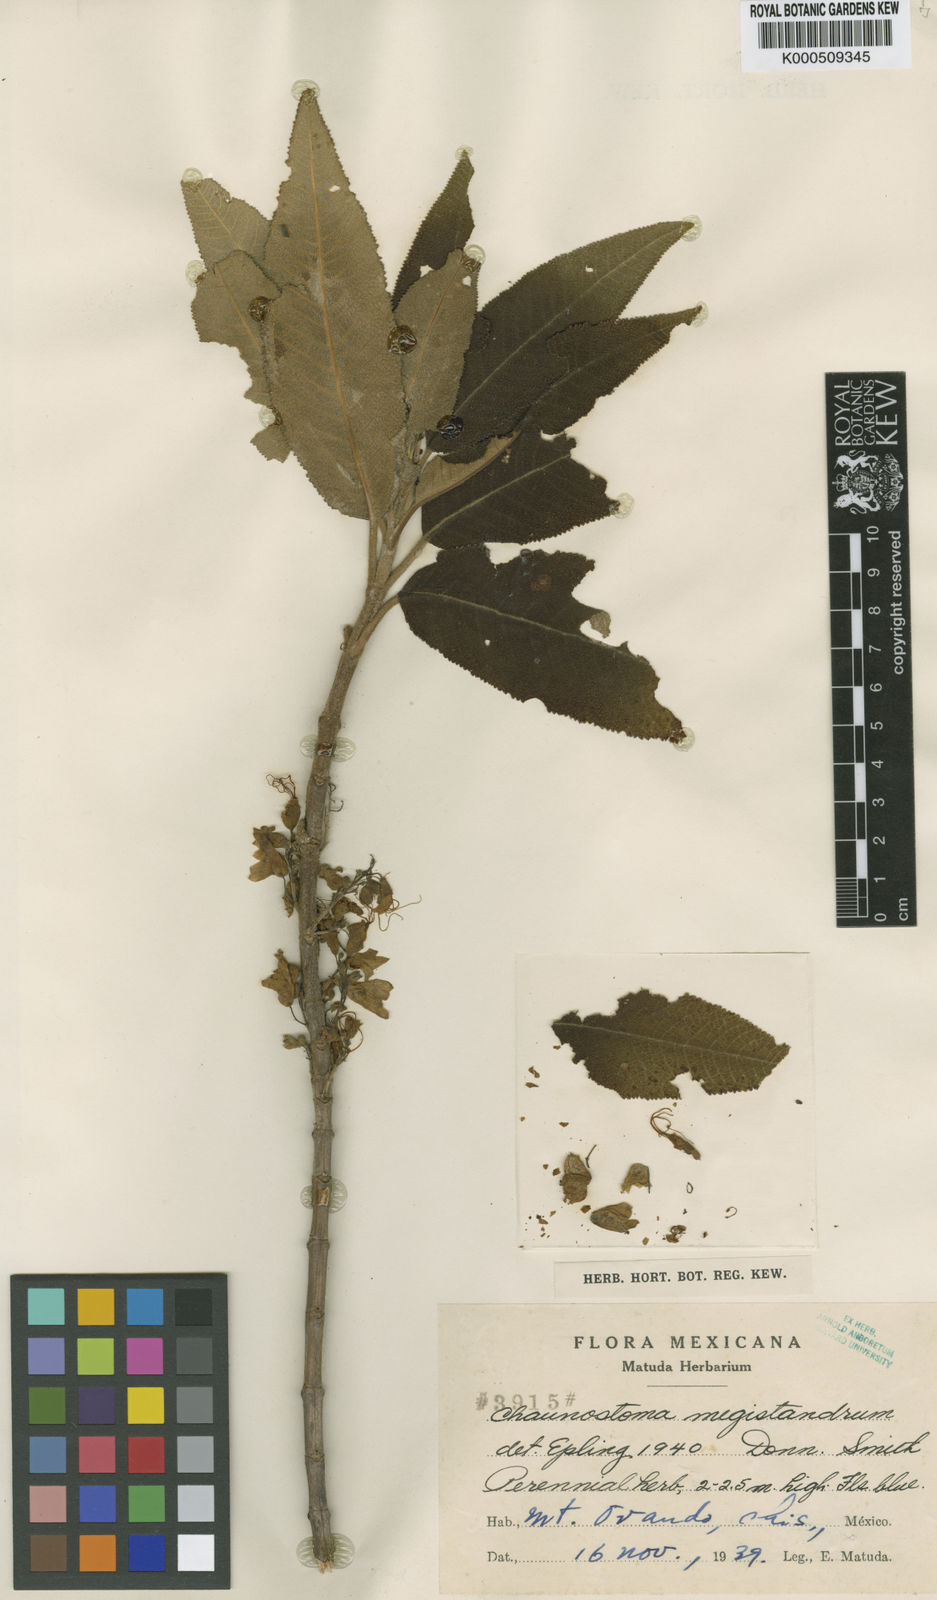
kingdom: Plantae
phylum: Tracheophyta
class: Magnoliopsida
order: Lamiales
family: Lamiaceae
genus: Lepechinia
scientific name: Lepechinia mecistandrum
